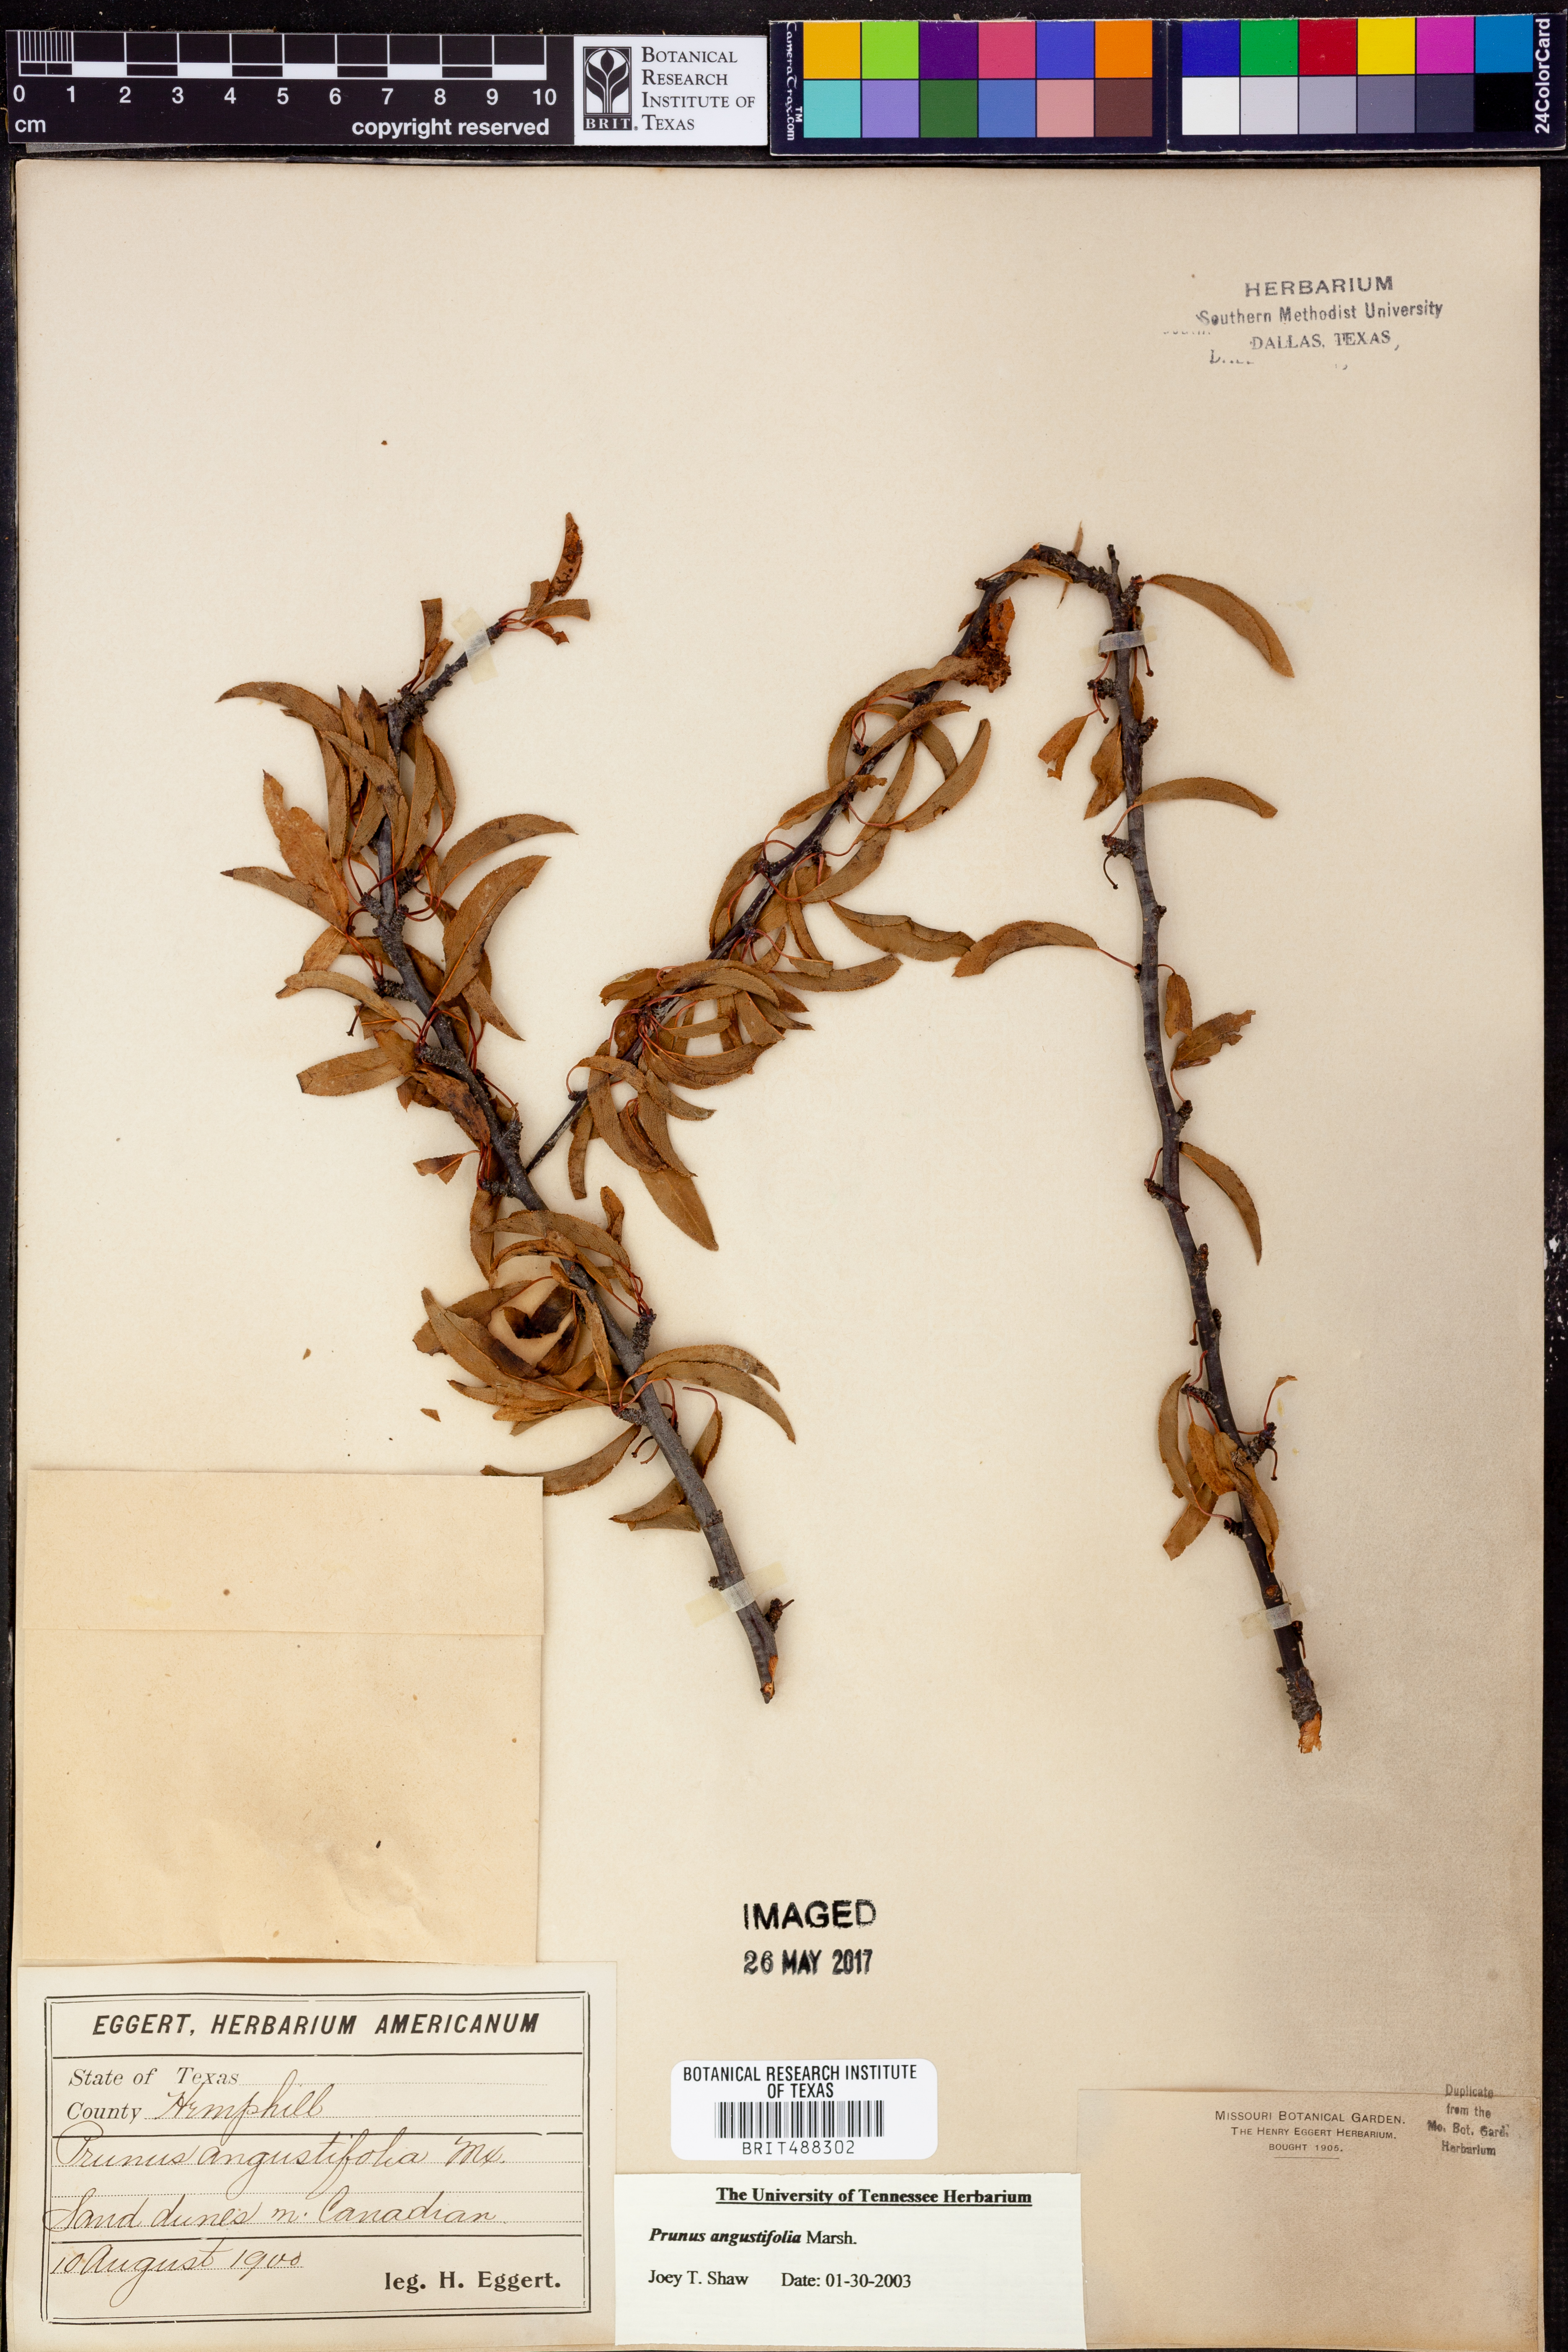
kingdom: Plantae
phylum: Tracheophyta
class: Magnoliopsida
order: Rosales
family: Rosaceae
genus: Prunus
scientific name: Prunus angustifolia
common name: Cherokee plum
